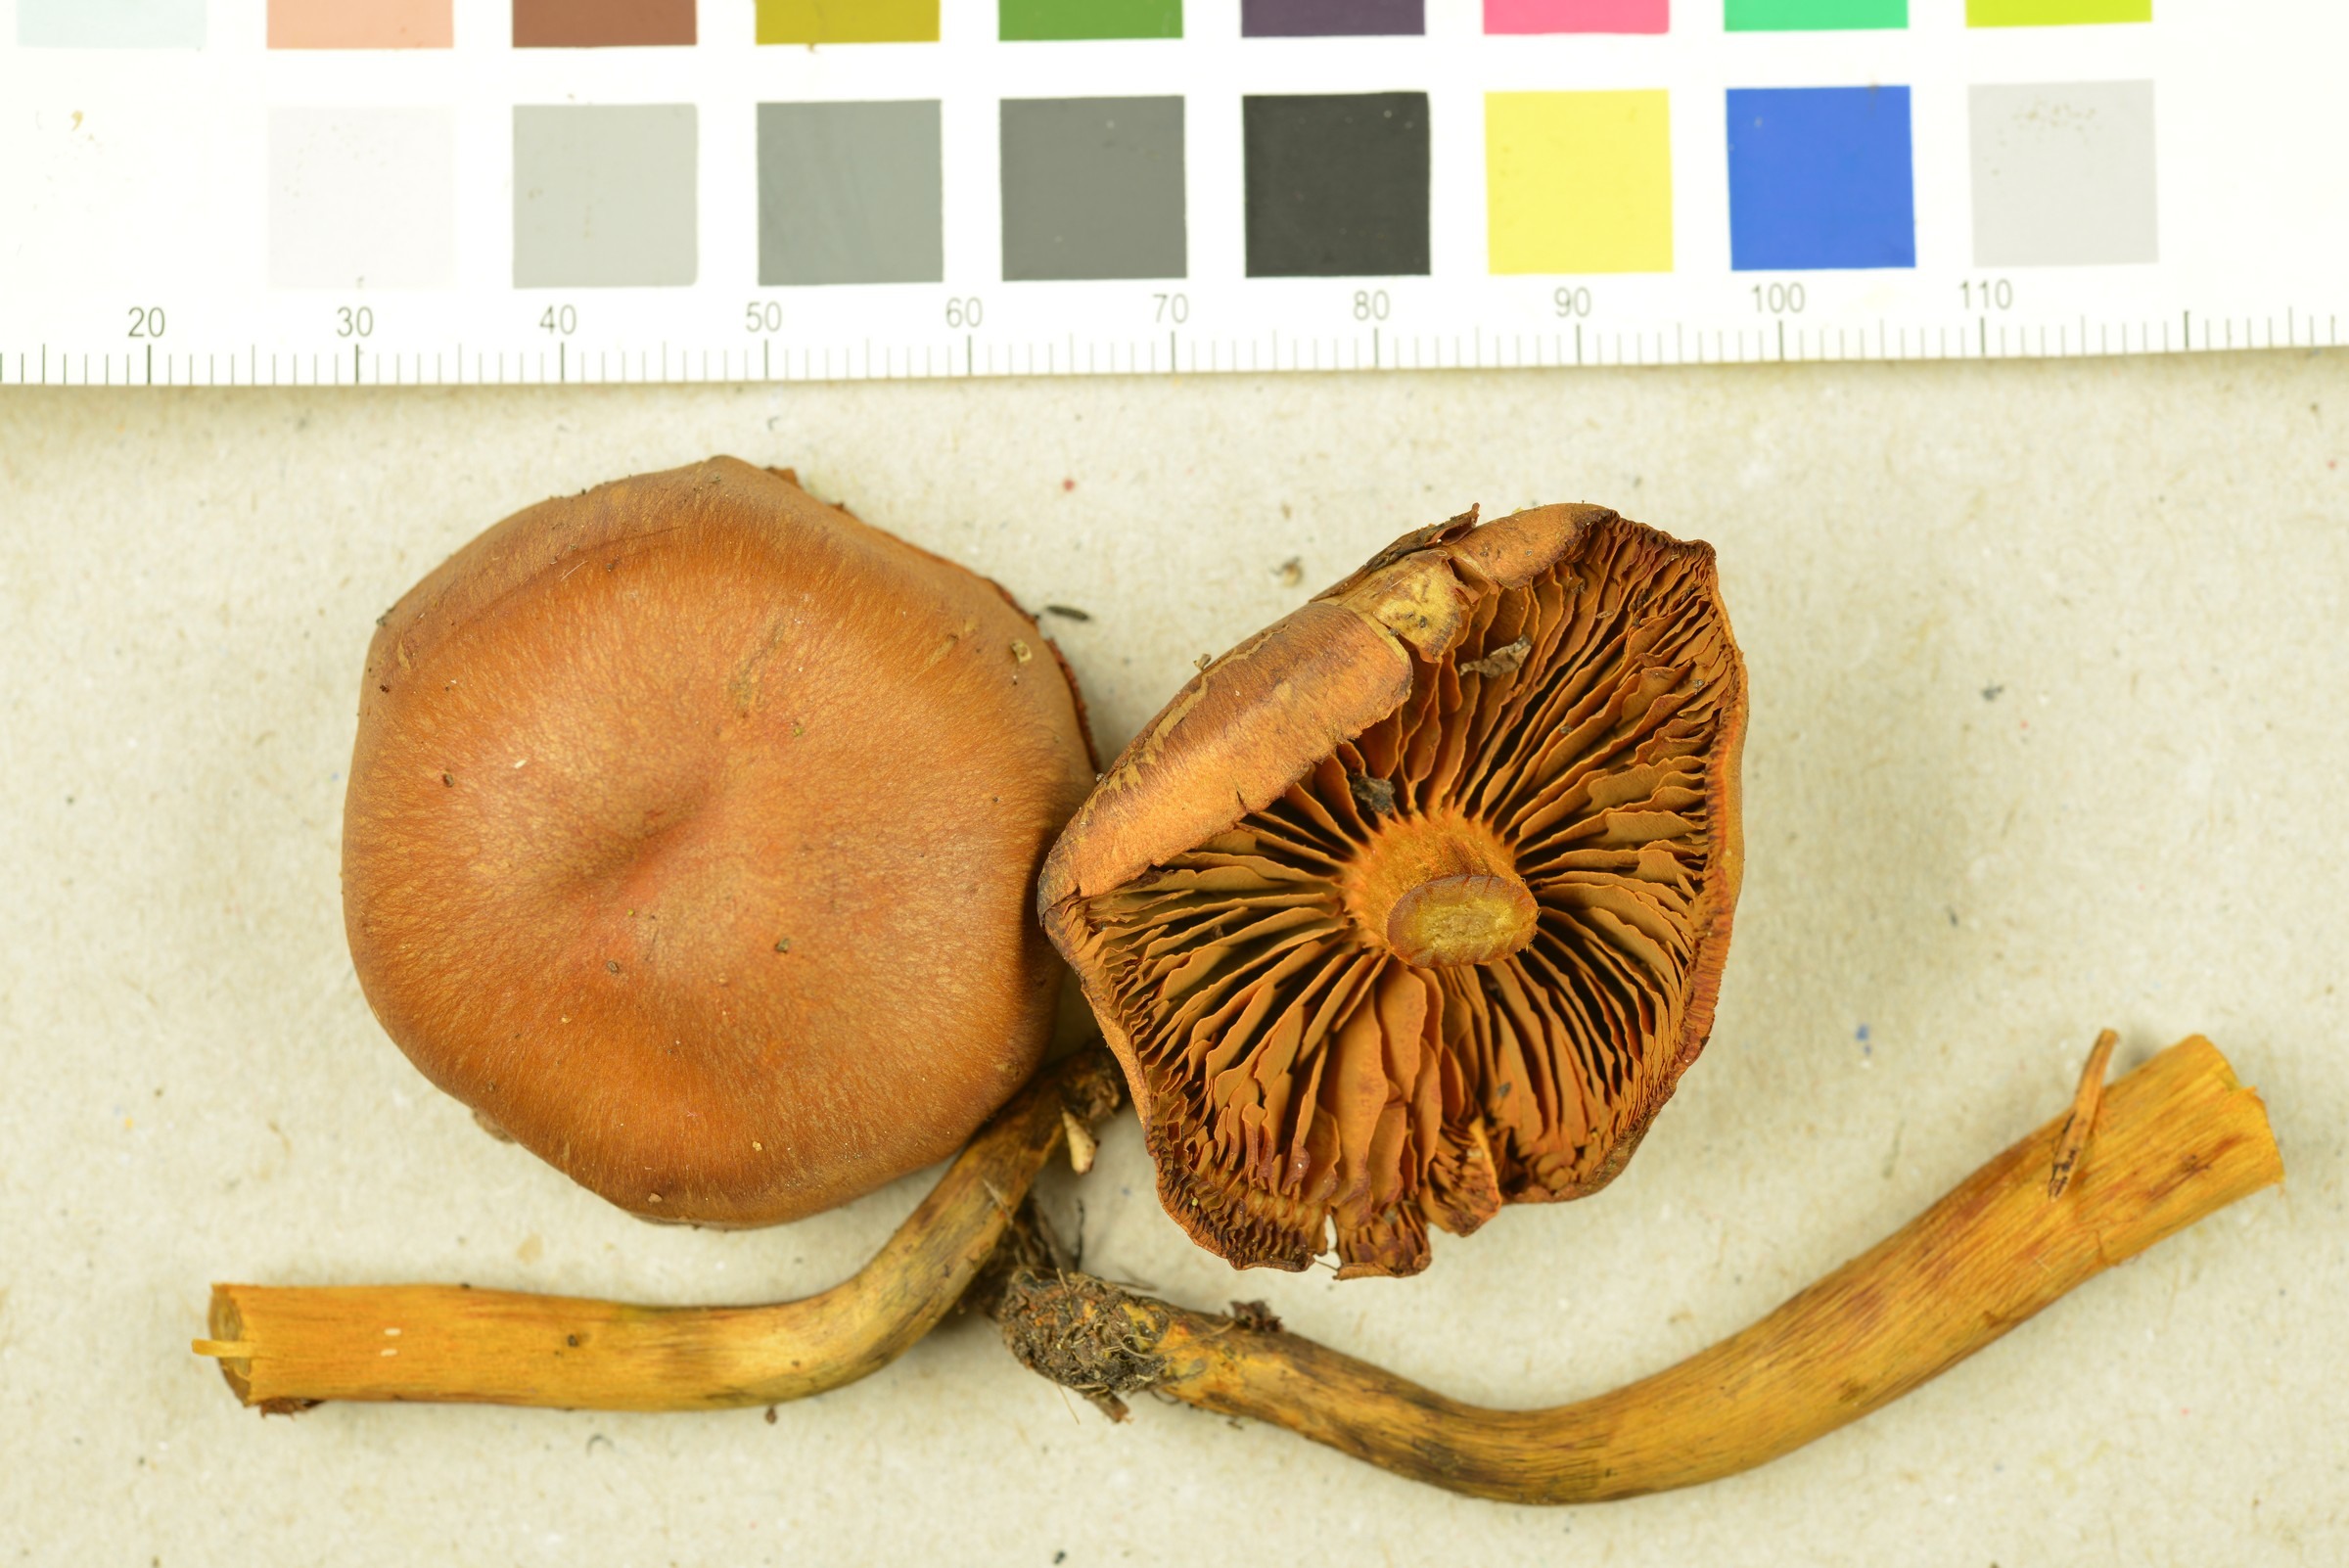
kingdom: Fungi
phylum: Basidiomycota
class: Agaricomycetes
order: Agaricales
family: Cortinariaceae
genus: Cortinarius
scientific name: Cortinarius malicorius
